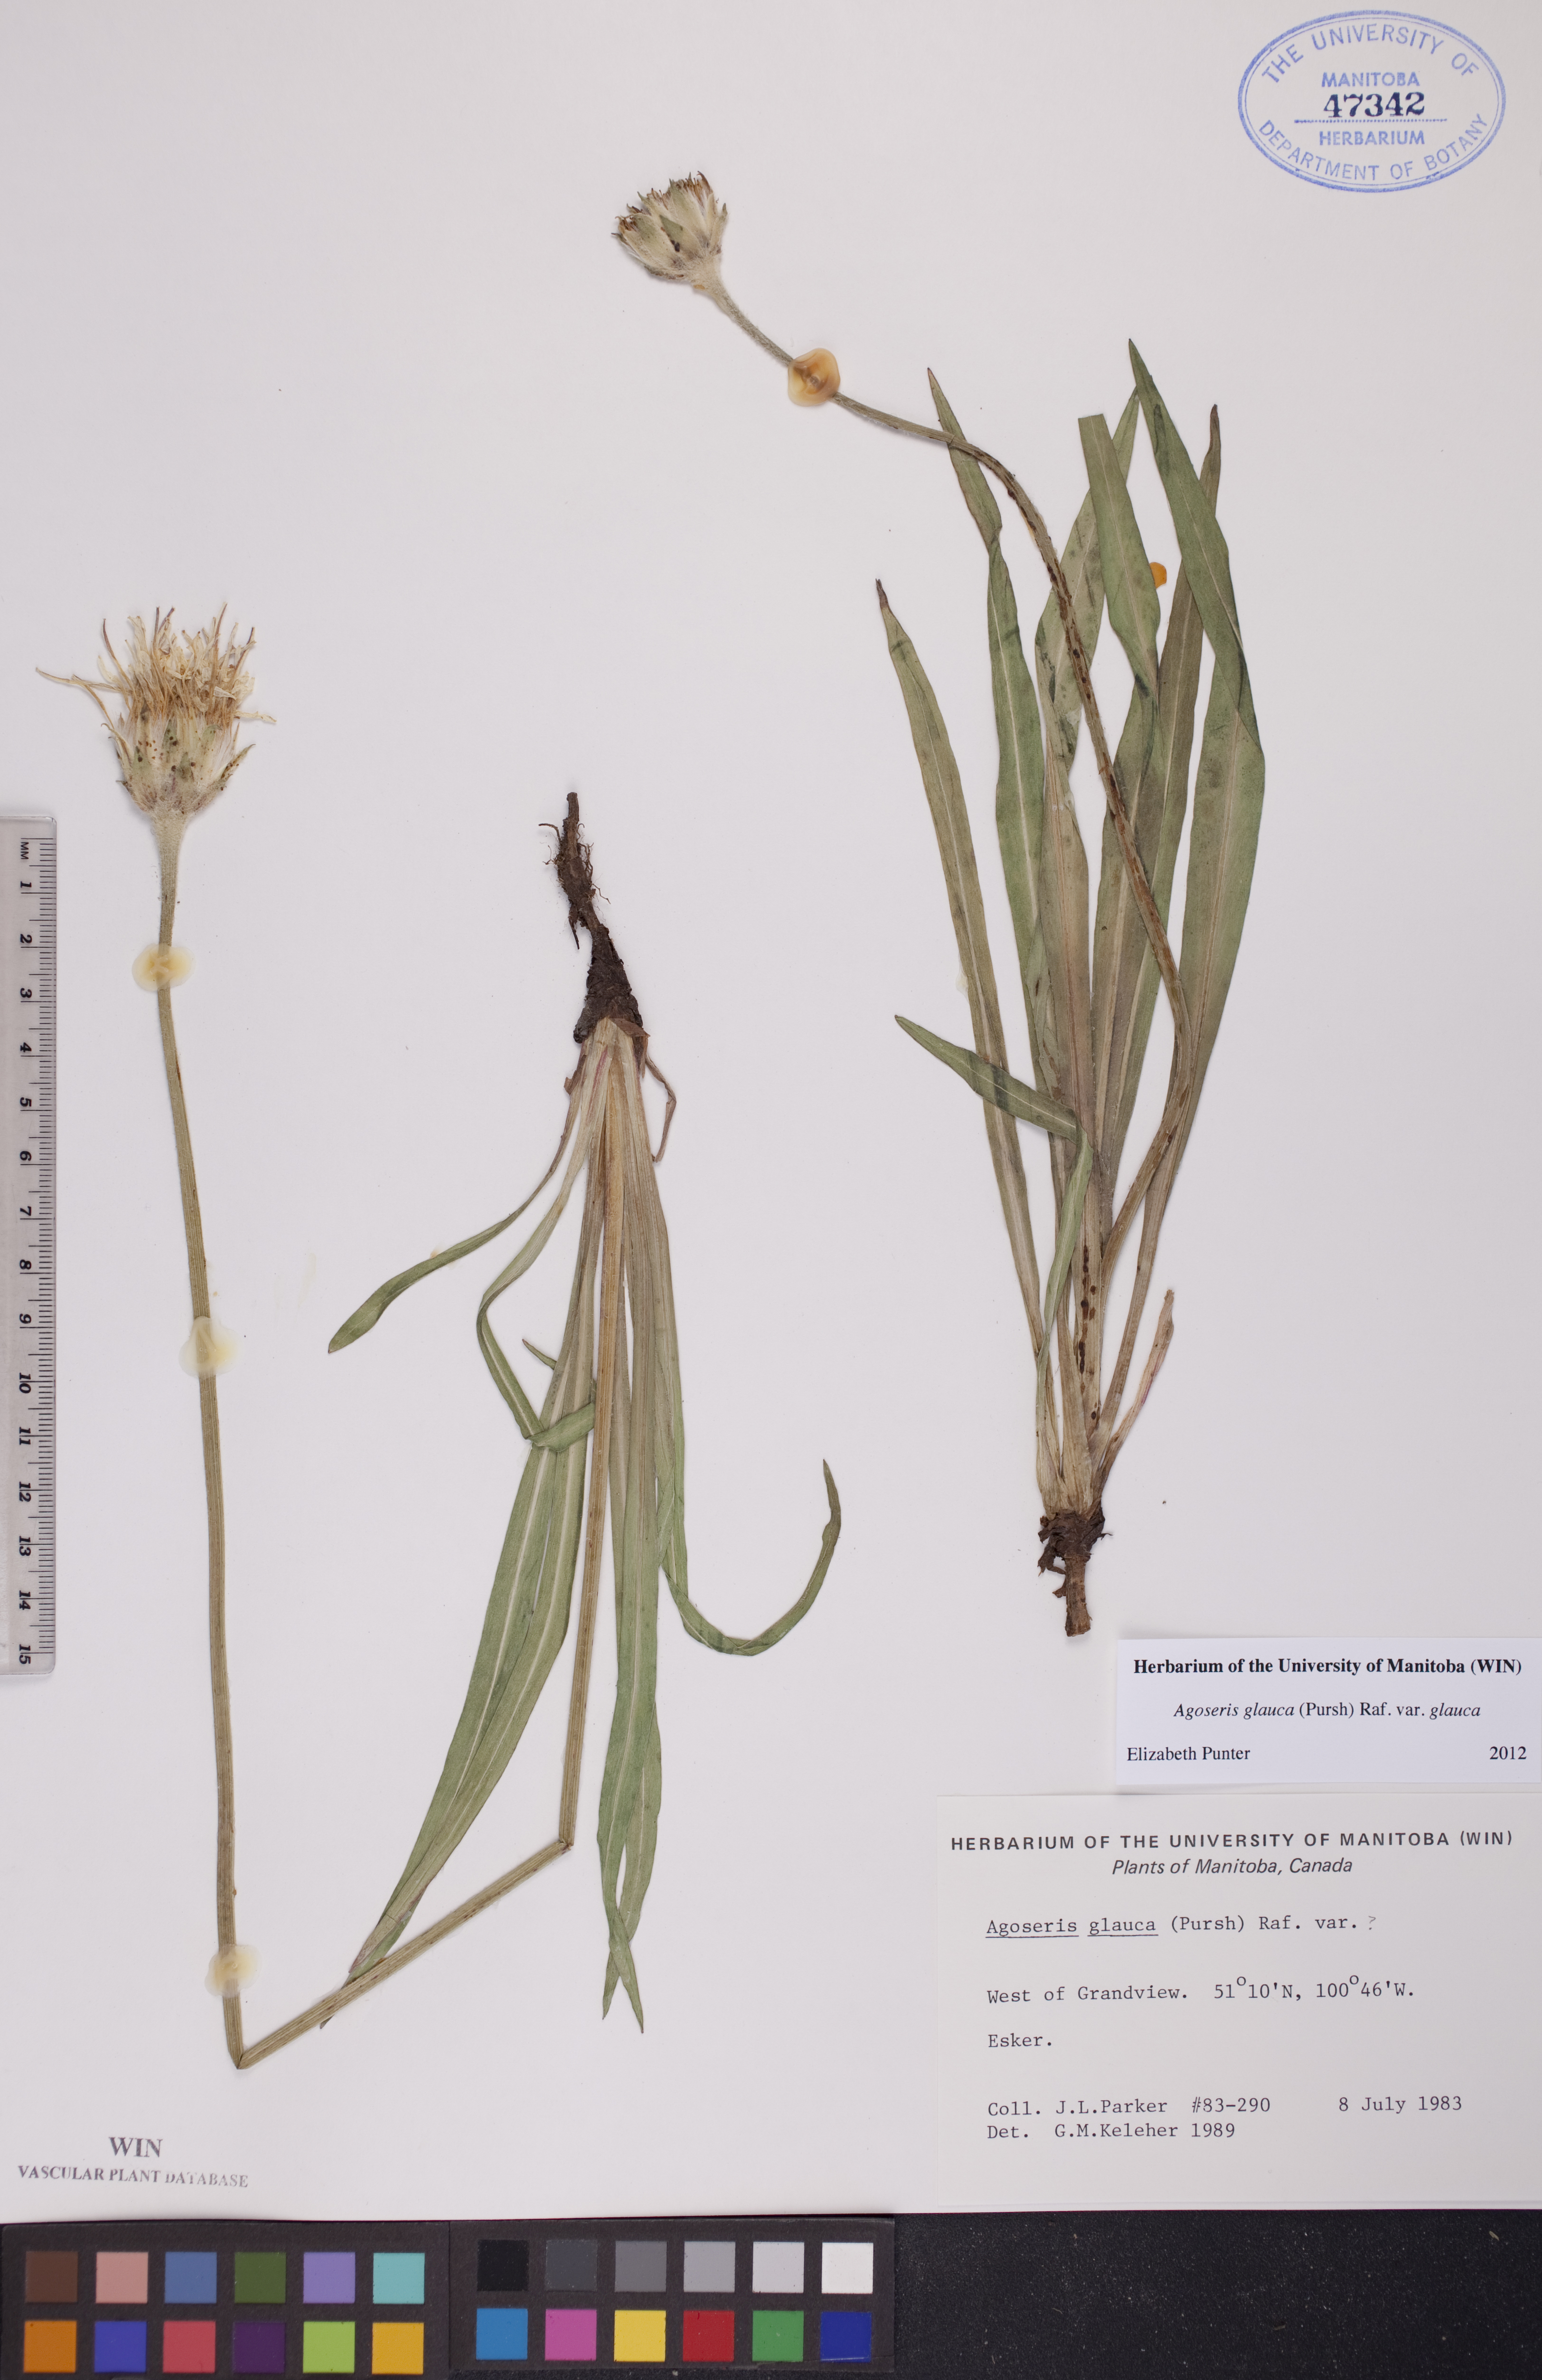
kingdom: Plantae
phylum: Tracheophyta
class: Magnoliopsida
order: Asterales
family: Asteraceae
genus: Agoseris
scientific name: Agoseris glauca
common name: Prairie agoseris
